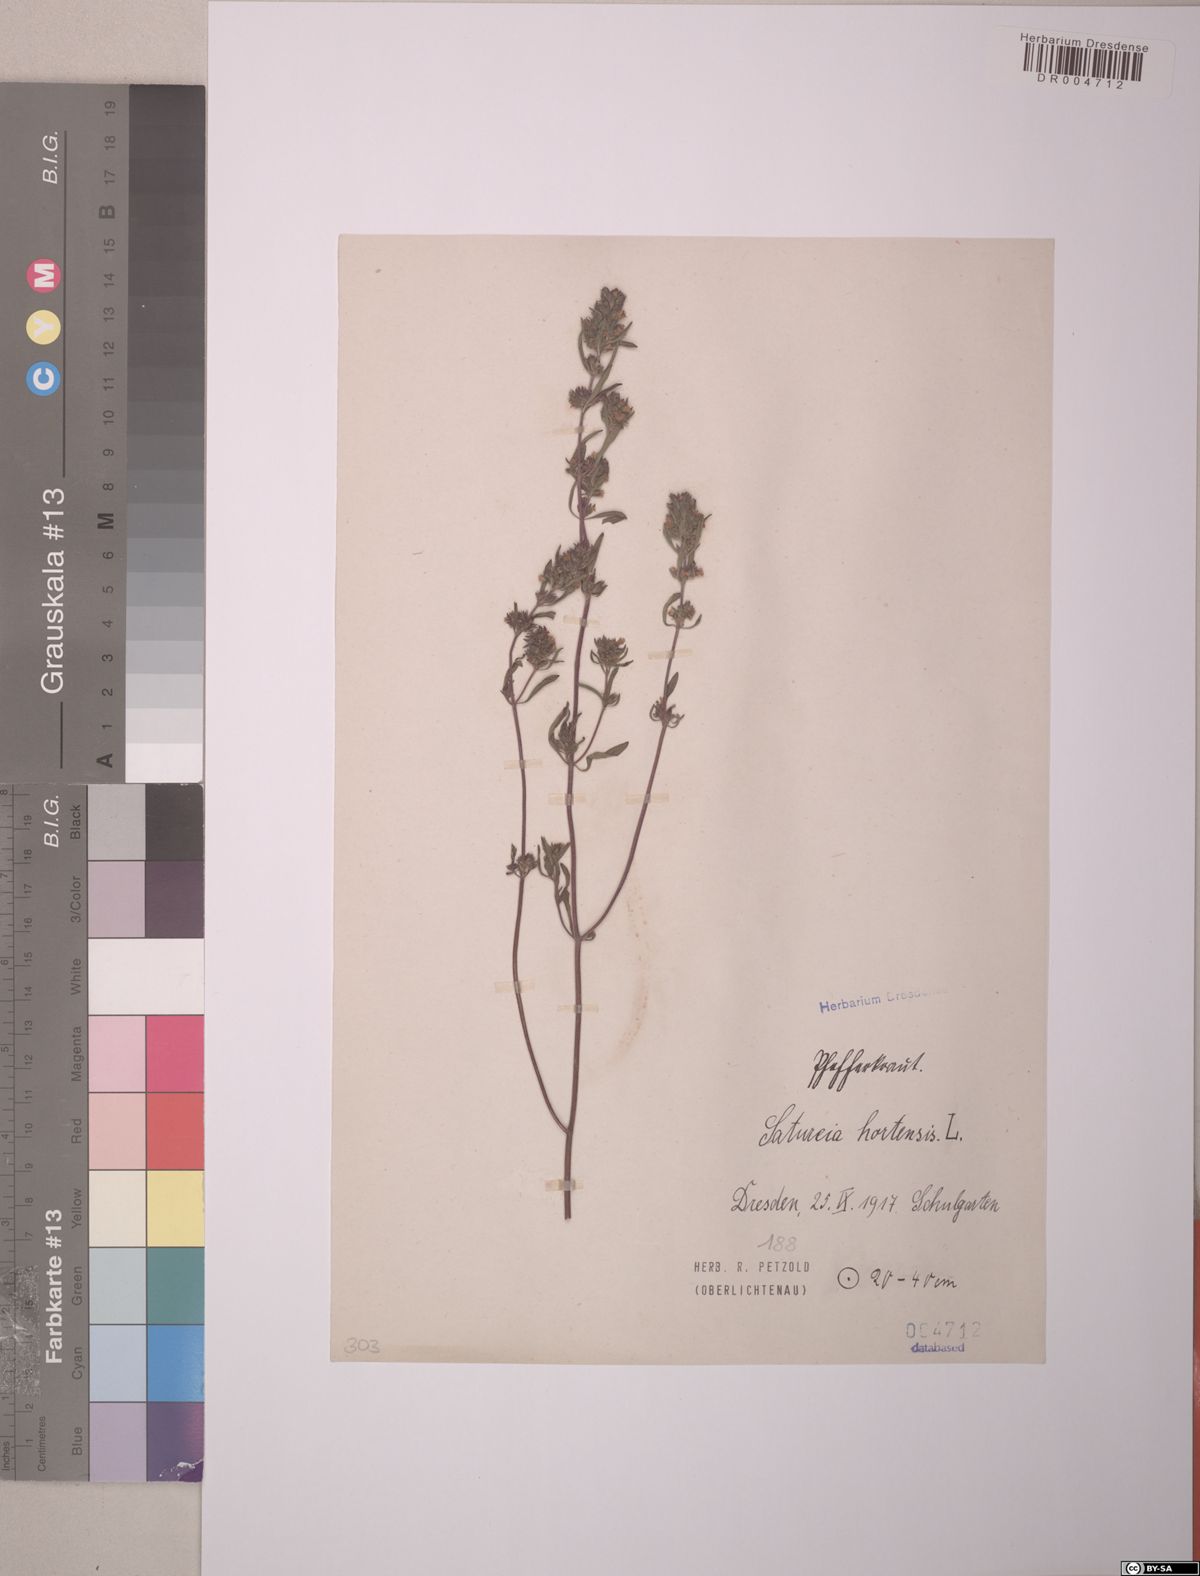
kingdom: Plantae
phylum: Tracheophyta
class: Magnoliopsida
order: Lamiales
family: Lamiaceae
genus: Satureja
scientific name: Satureja hortensis
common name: Summer savory
